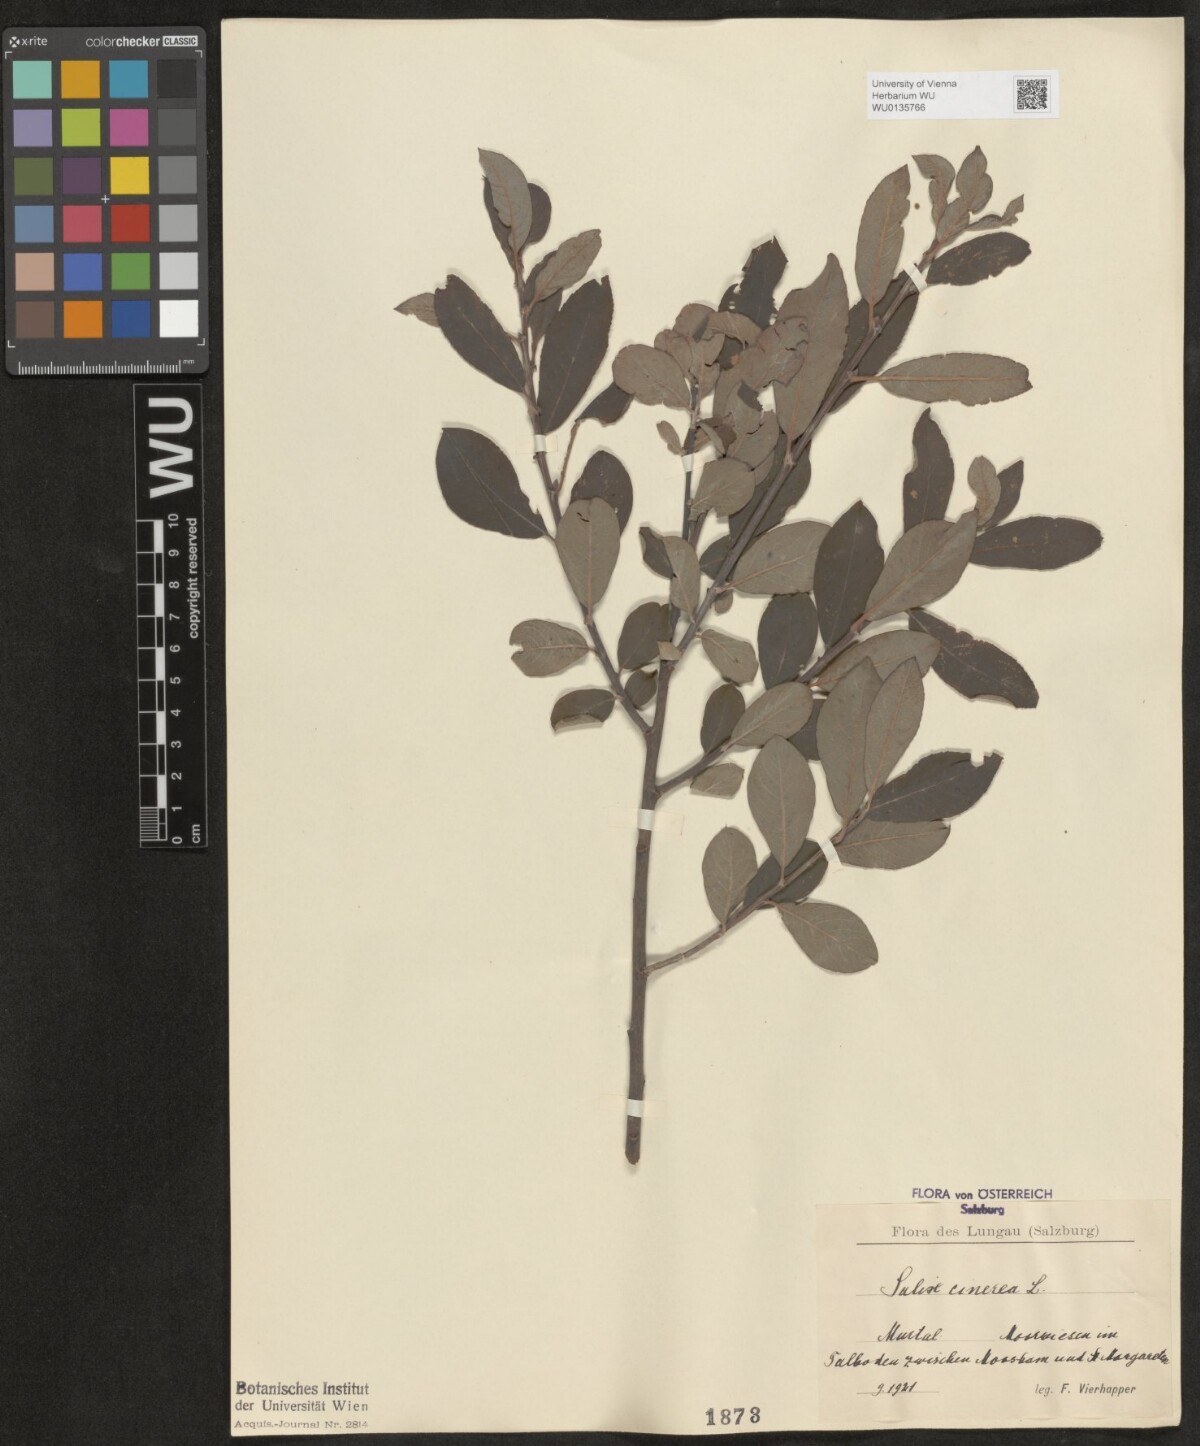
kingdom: Plantae
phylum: Tracheophyta
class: Magnoliopsida
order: Malpighiales
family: Salicaceae
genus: Salix
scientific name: Salix cinerea
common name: Common sallow
